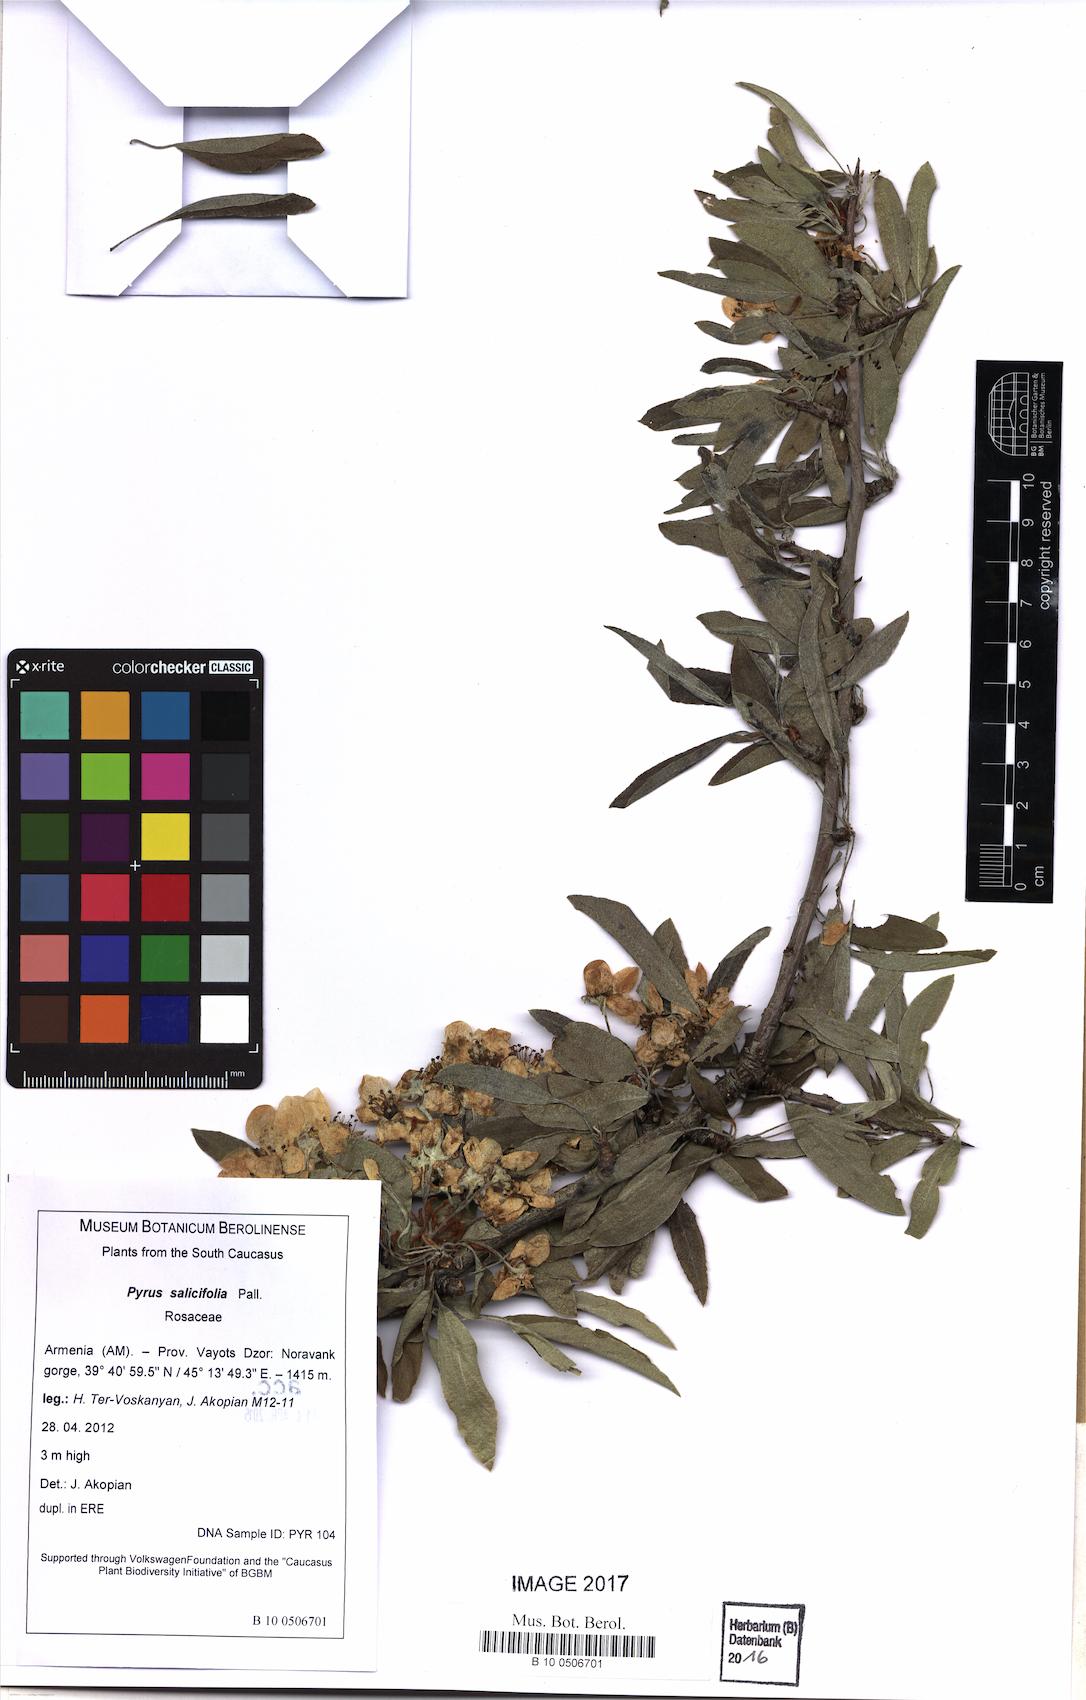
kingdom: Plantae
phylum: Tracheophyta
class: Magnoliopsida
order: Rosales
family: Rosaceae
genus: Pyrus
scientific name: Pyrus salicifolia
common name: Willow-leaved pear
